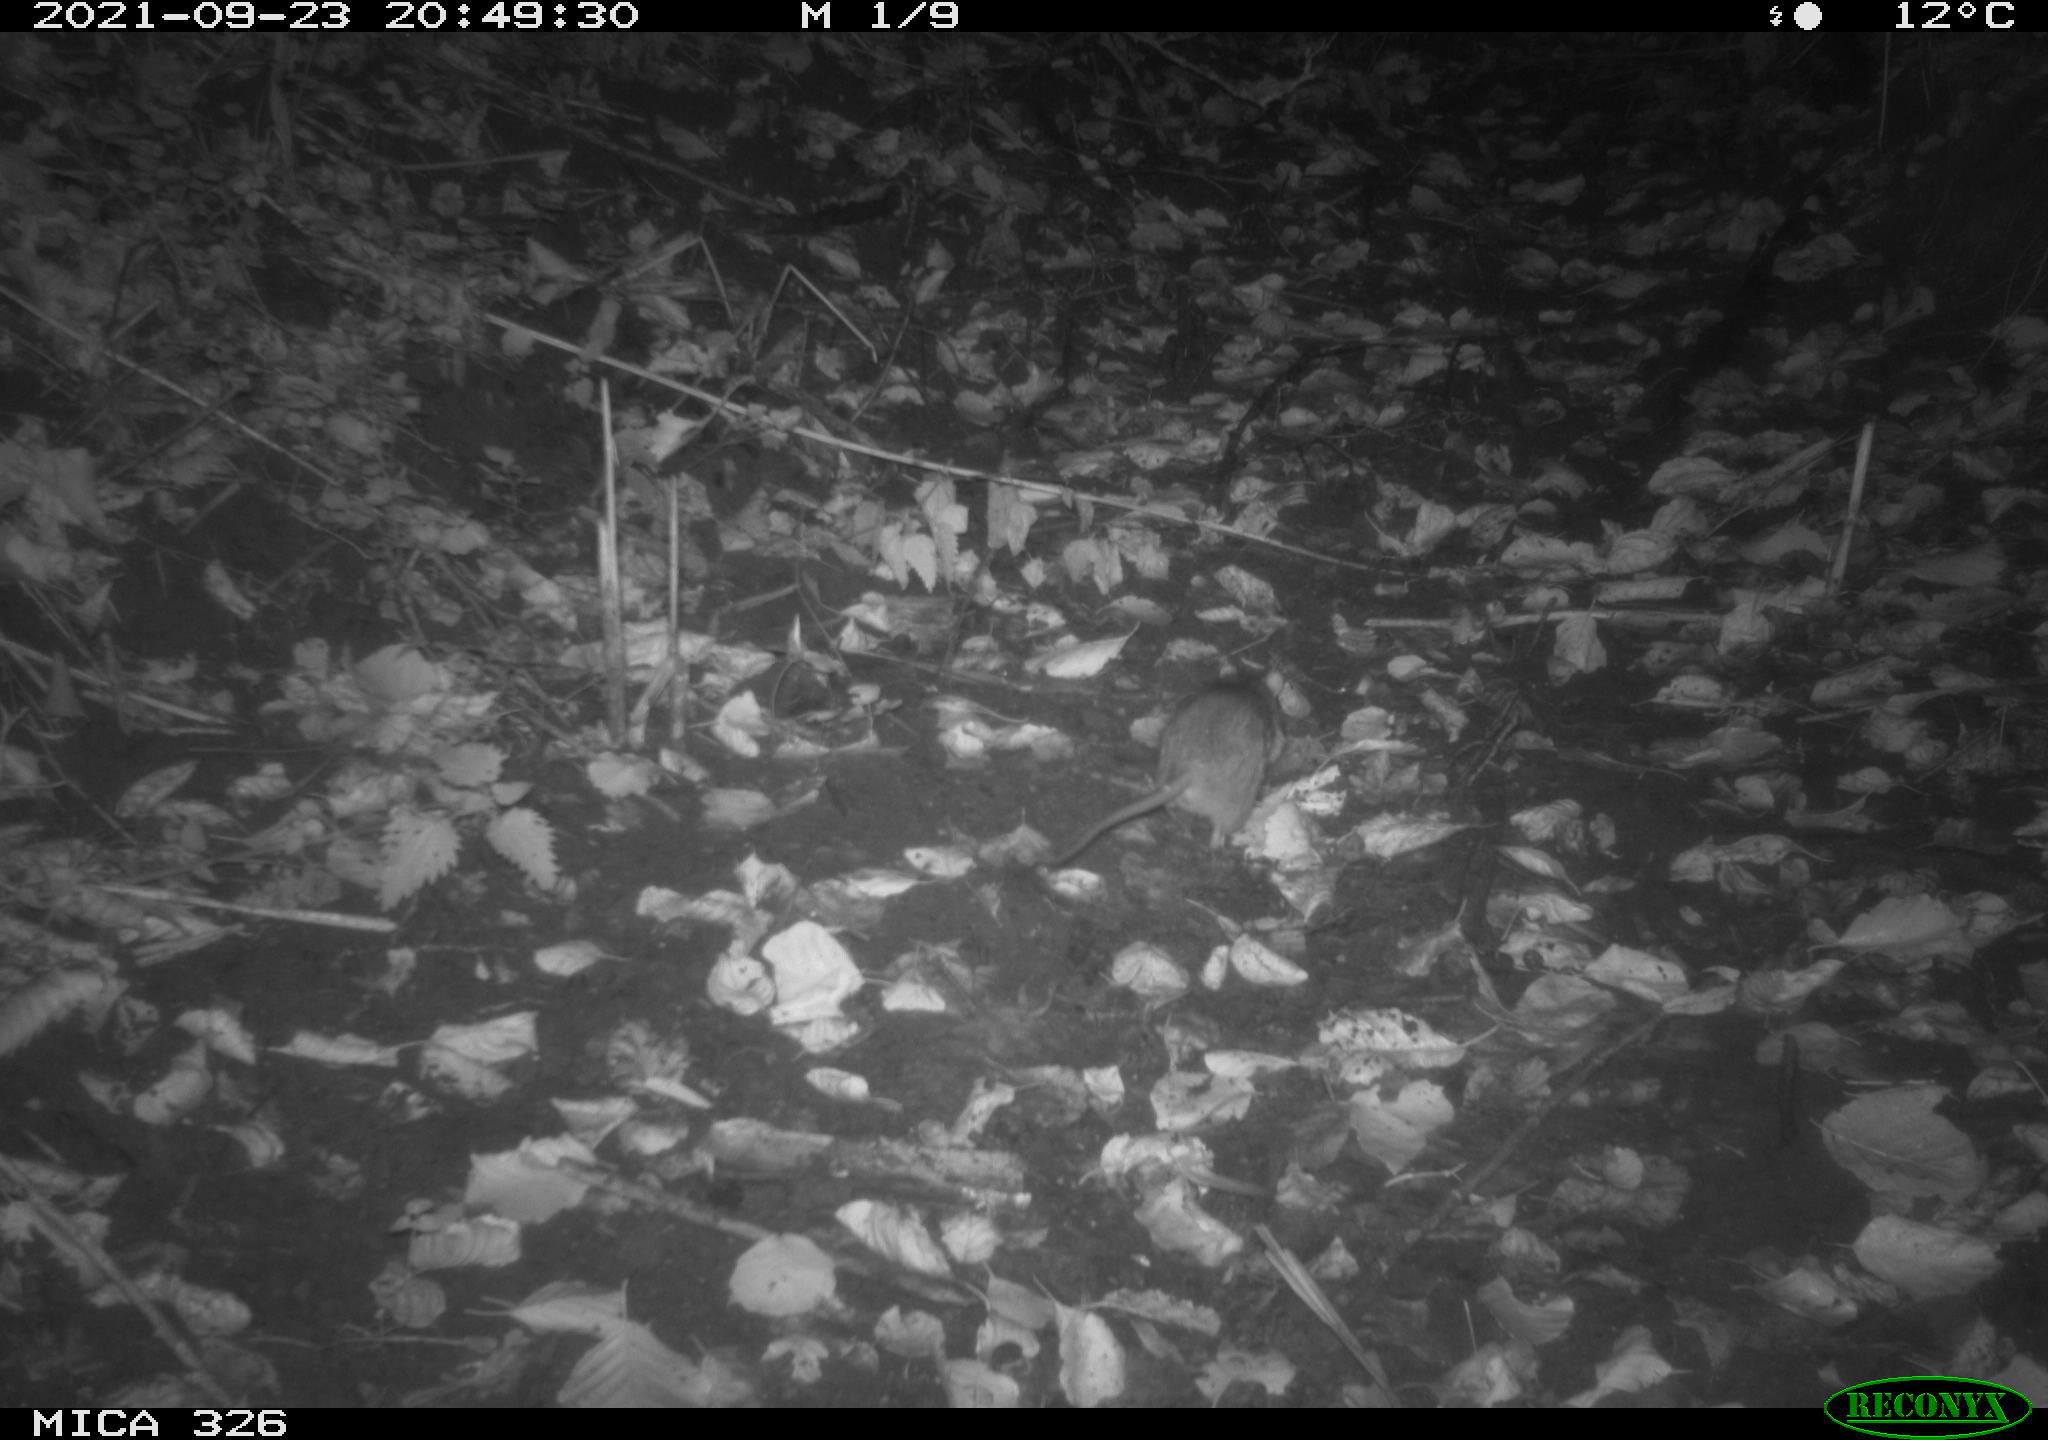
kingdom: Animalia
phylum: Chordata
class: Mammalia
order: Rodentia
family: Muridae
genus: Rattus
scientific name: Rattus norvegicus
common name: Brown rat
